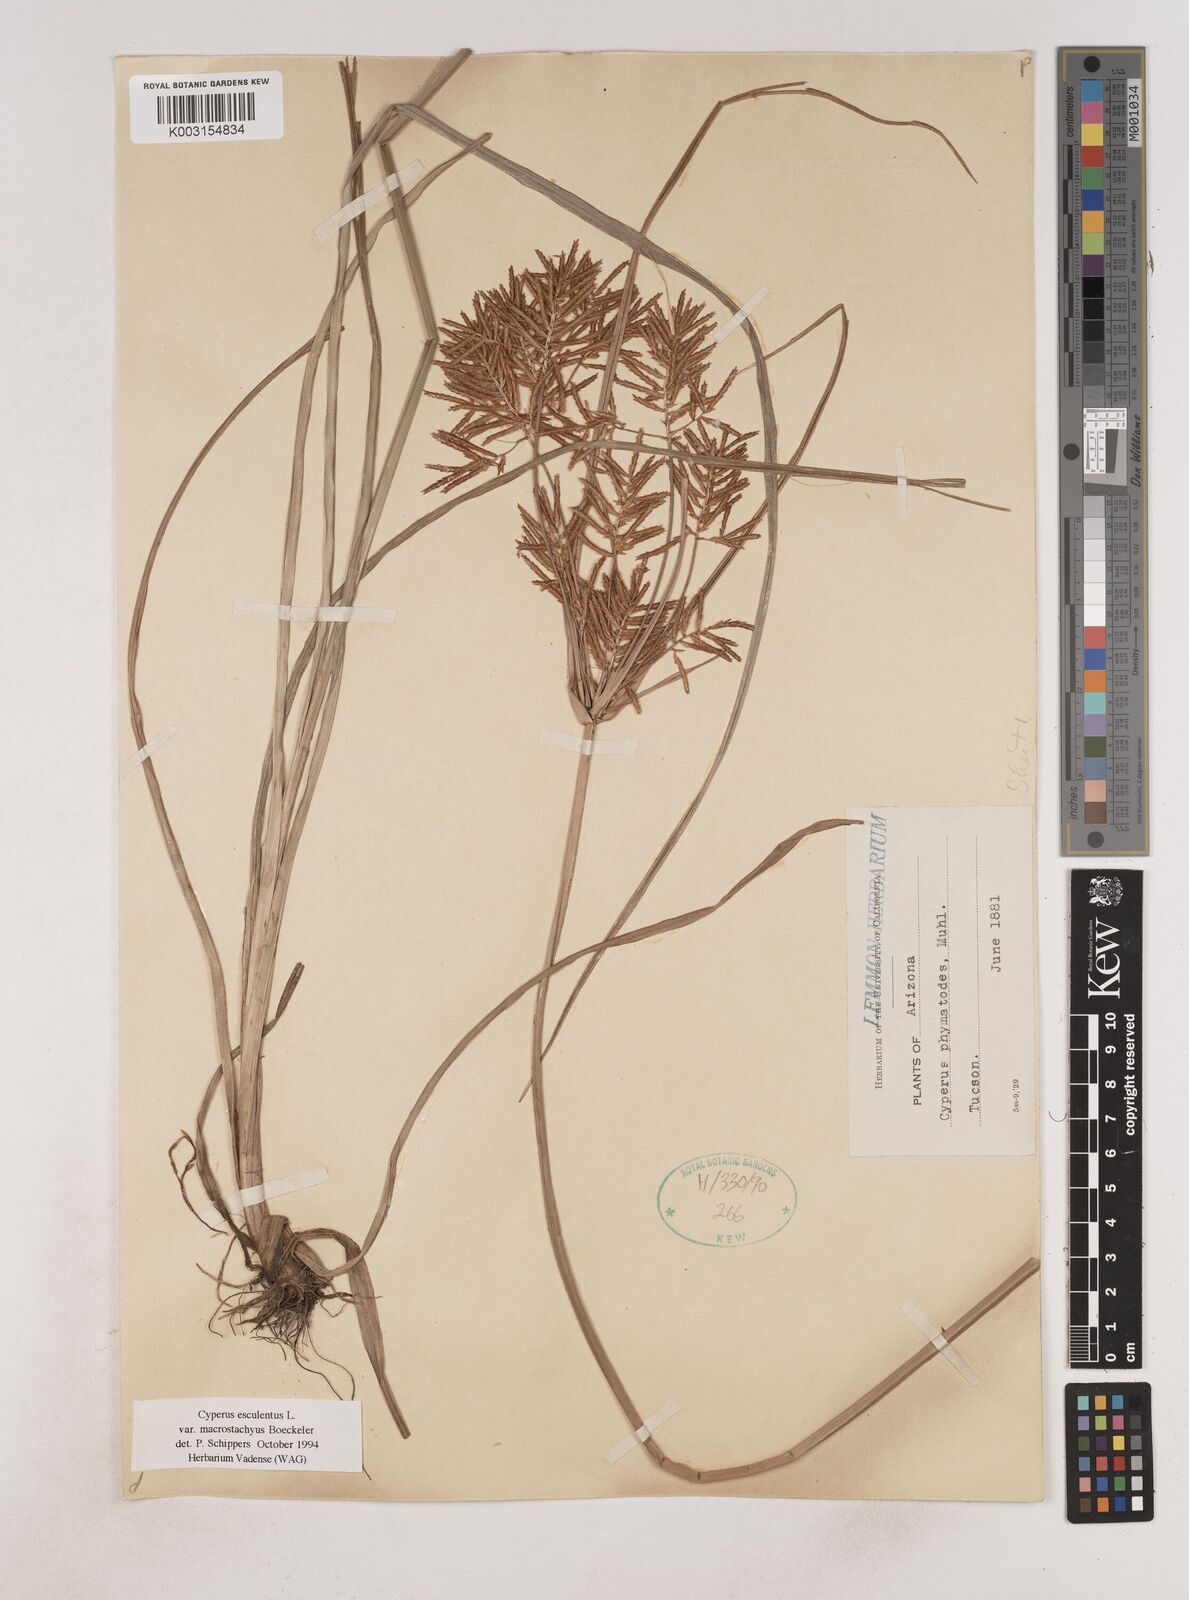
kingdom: Plantae
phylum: Tracheophyta
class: Liliopsida
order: Poales
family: Cyperaceae
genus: Cyperus
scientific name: Cyperus esculentus
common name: Yellow nutsedge
